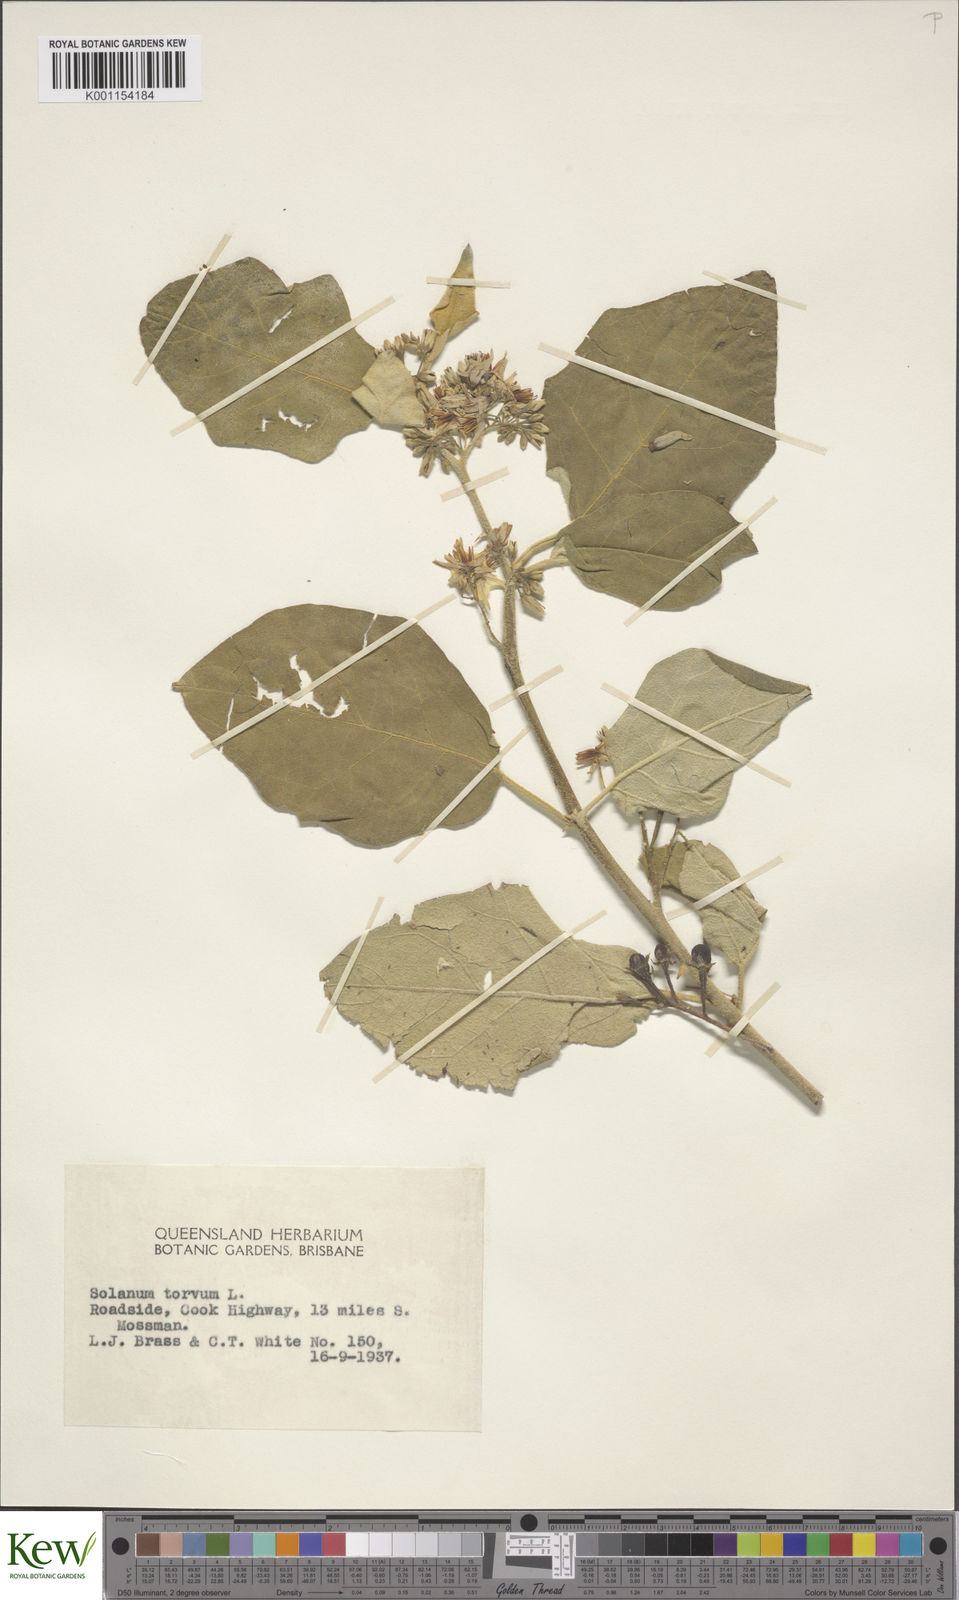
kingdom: Plantae
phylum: Tracheophyta
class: Magnoliopsida
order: Solanales
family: Solanaceae
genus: Solanum
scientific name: Solanum torvum
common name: Turkey berry
